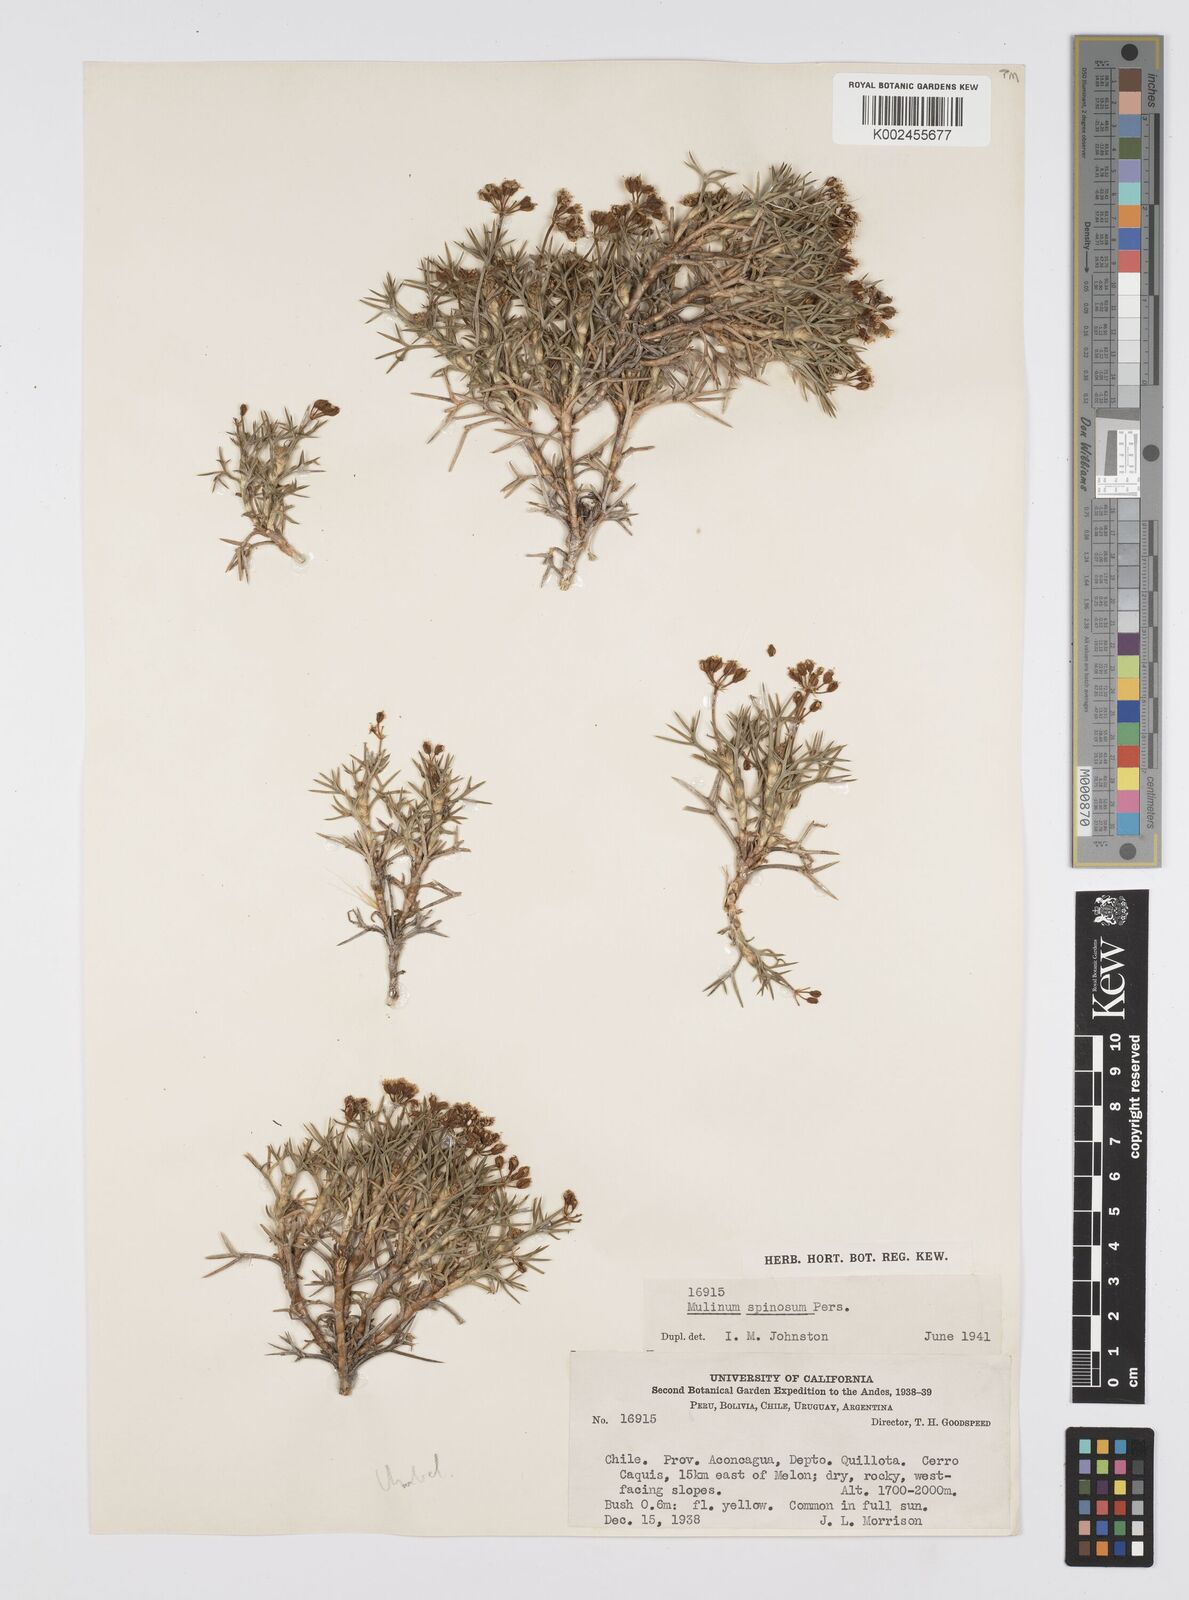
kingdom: Plantae
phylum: Tracheophyta
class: Magnoliopsida
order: Apiales
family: Apiaceae
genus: Azorella
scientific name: Azorella prolifera
